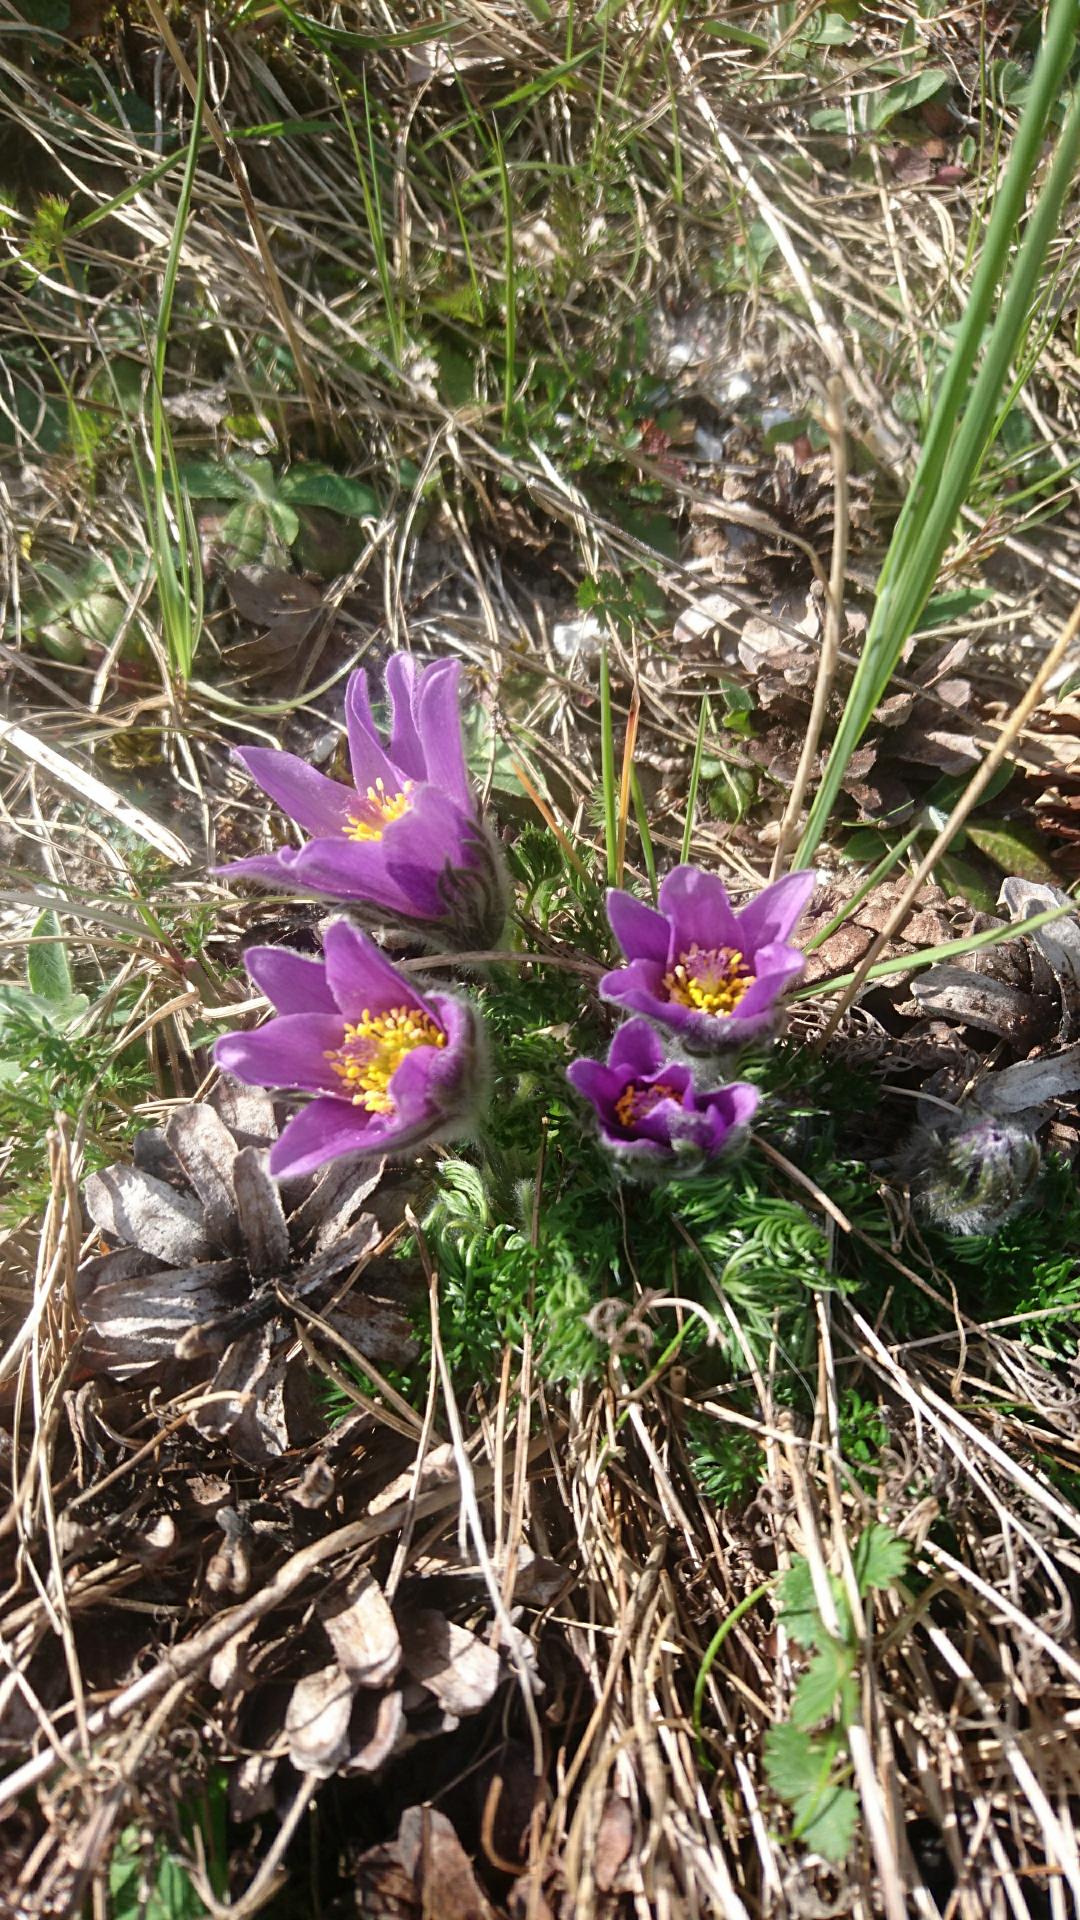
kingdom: Plantae
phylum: Tracheophyta
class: Magnoliopsida
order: Ranunculales
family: Ranunculaceae
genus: Pulsatilla
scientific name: Pulsatilla vulgaris
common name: Opret kobjælde
